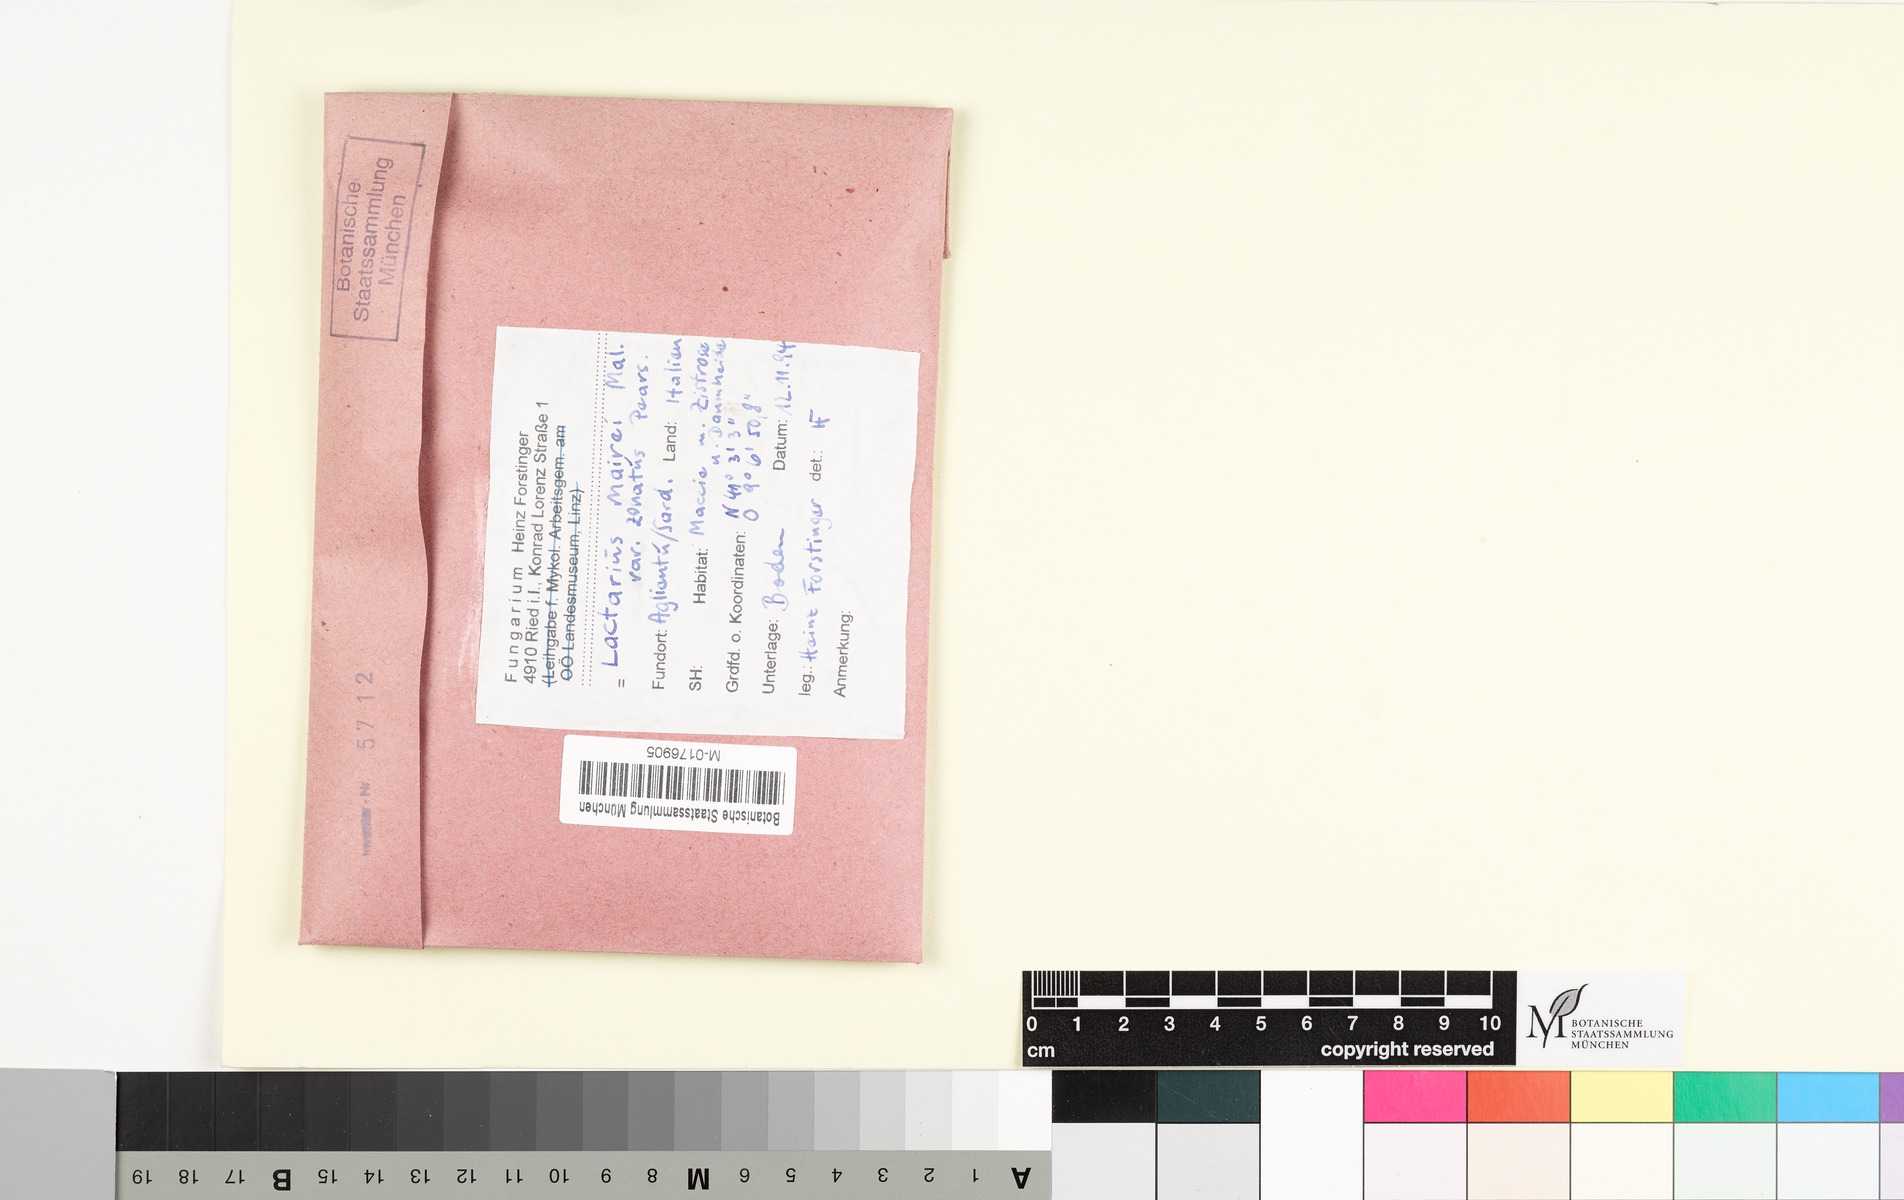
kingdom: Fungi
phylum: Basidiomycota
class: Agaricomycetes
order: Russulales
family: Russulaceae
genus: Lactarius
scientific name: Lactarius tesquorum
